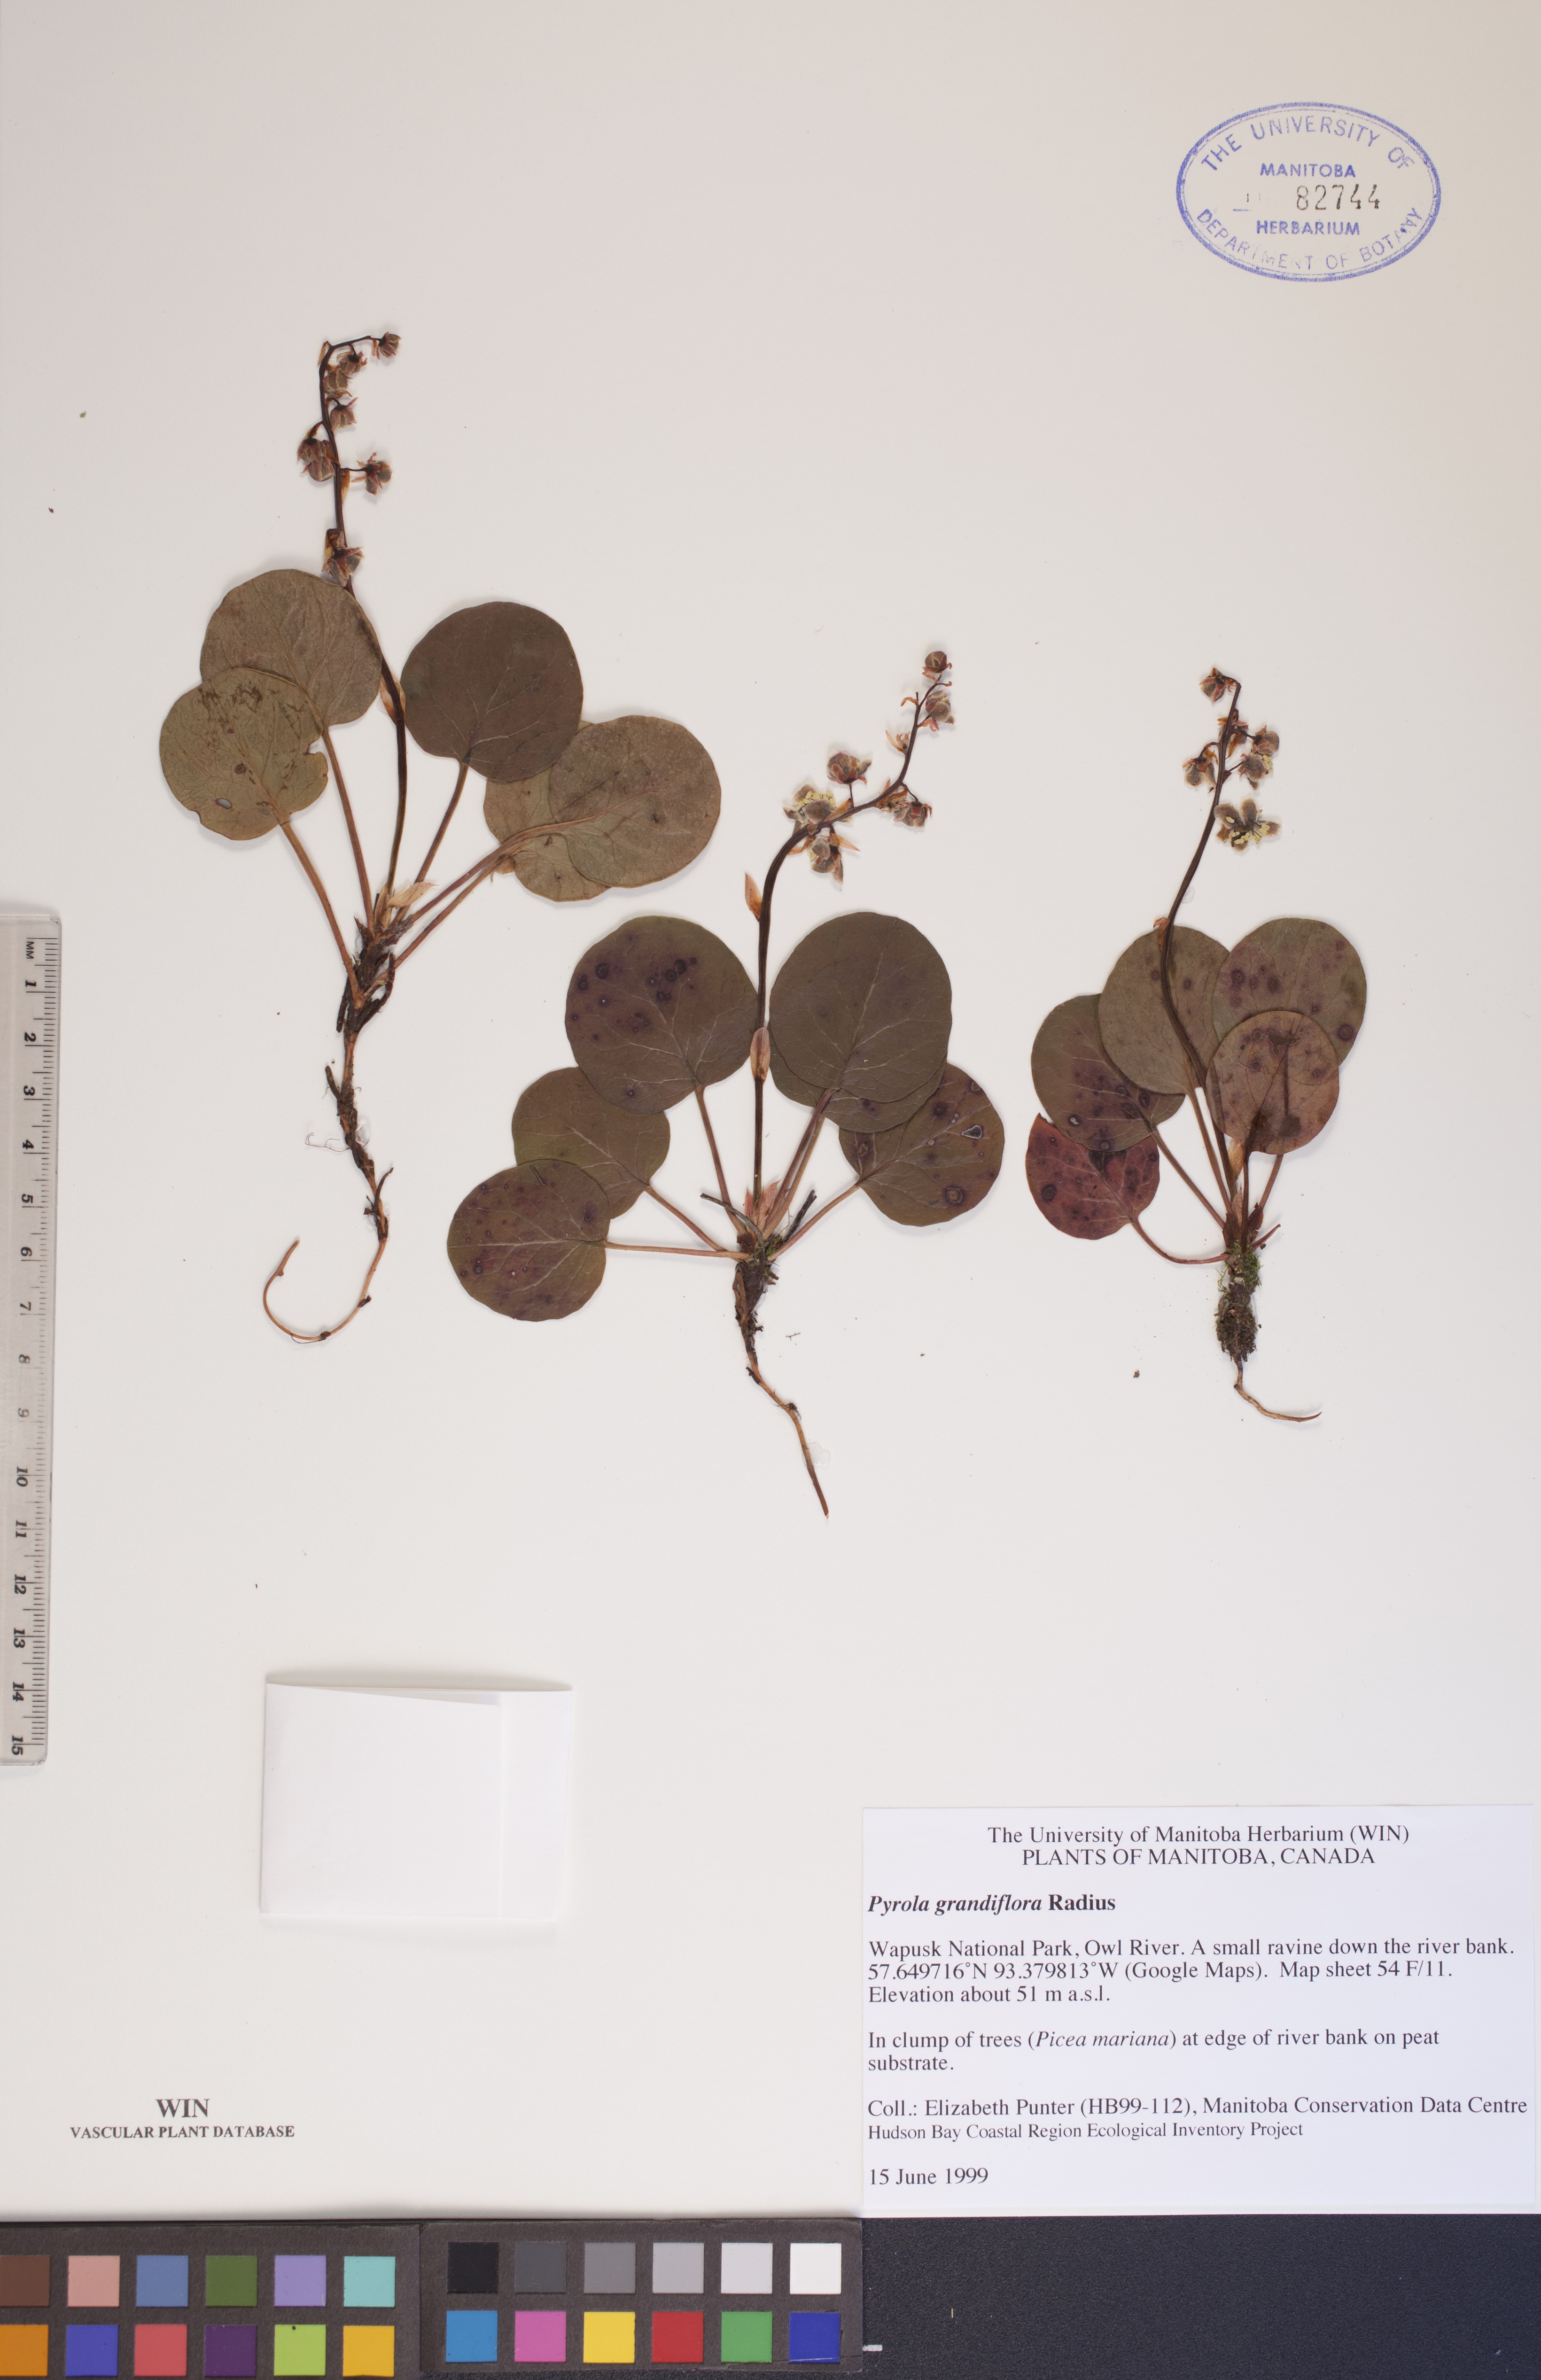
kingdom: Plantae
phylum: Tracheophyta
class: Magnoliopsida
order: Ericales
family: Ericaceae
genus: Pyrola
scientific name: Pyrola grandiflora
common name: Arctic pyrola
